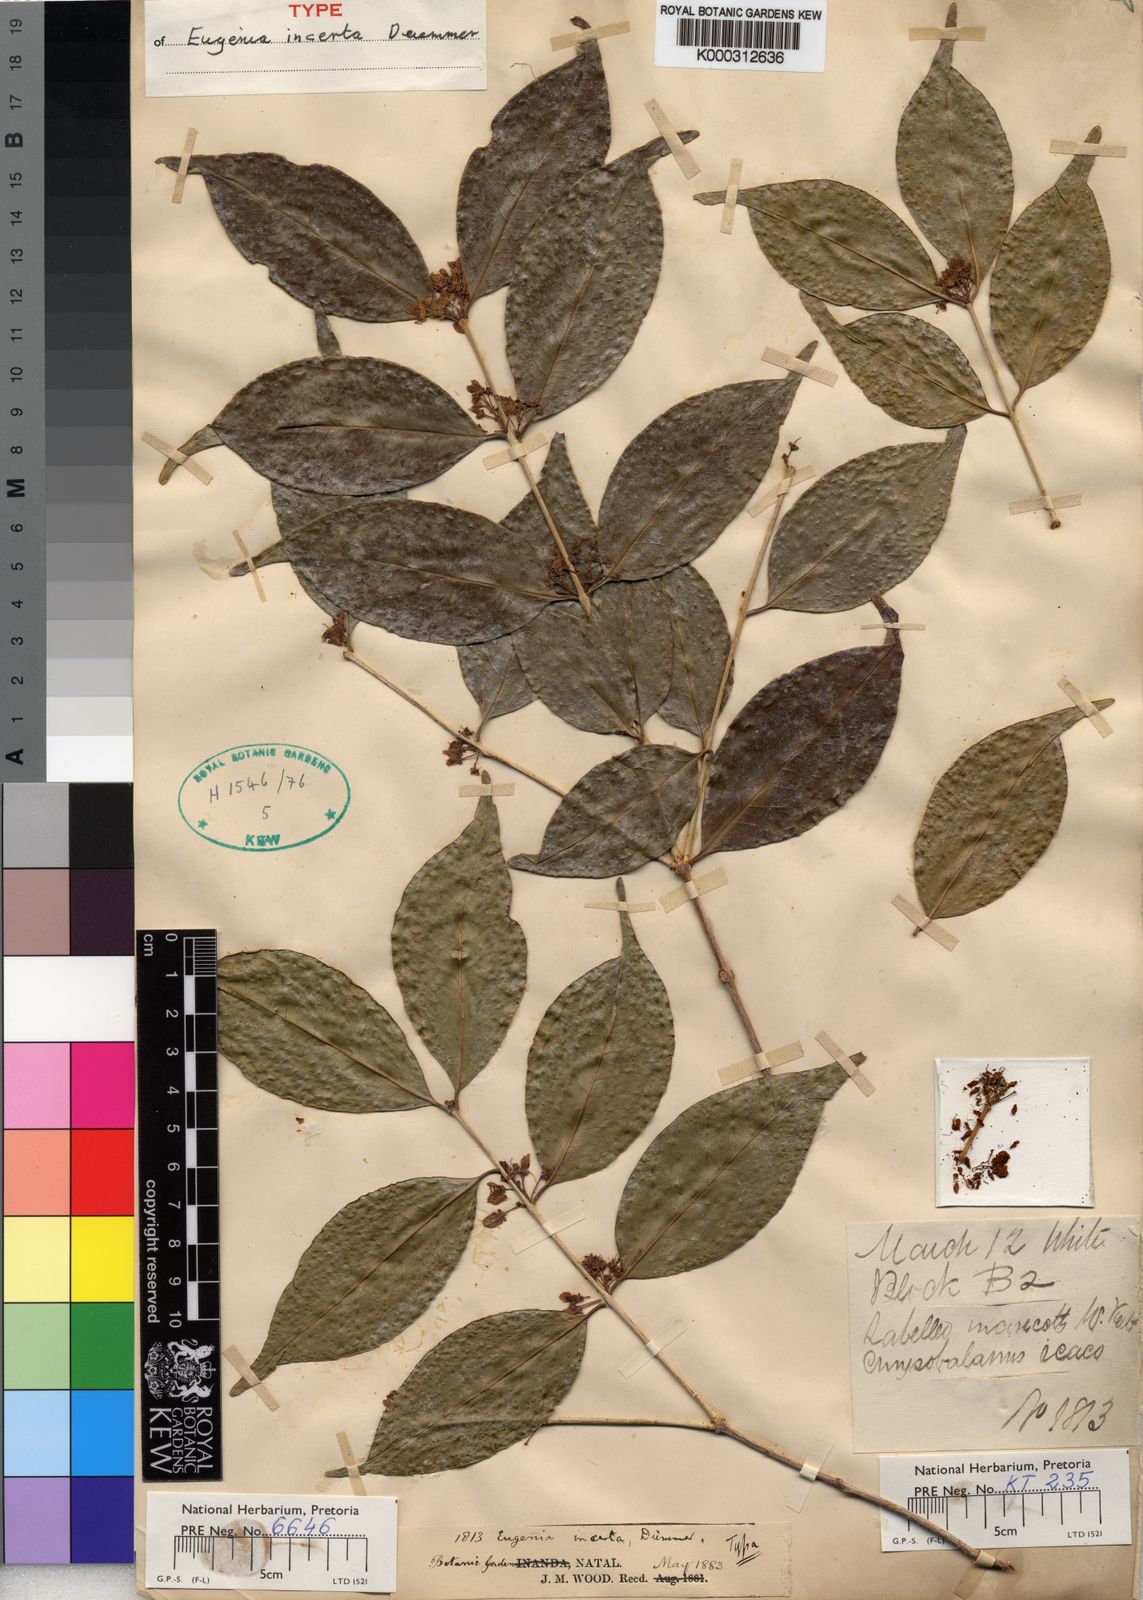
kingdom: Plantae
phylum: Tracheophyta
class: Magnoliopsida
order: Myrtales
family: Myrtaceae
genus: Eugenia
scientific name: Eugenia incerta
